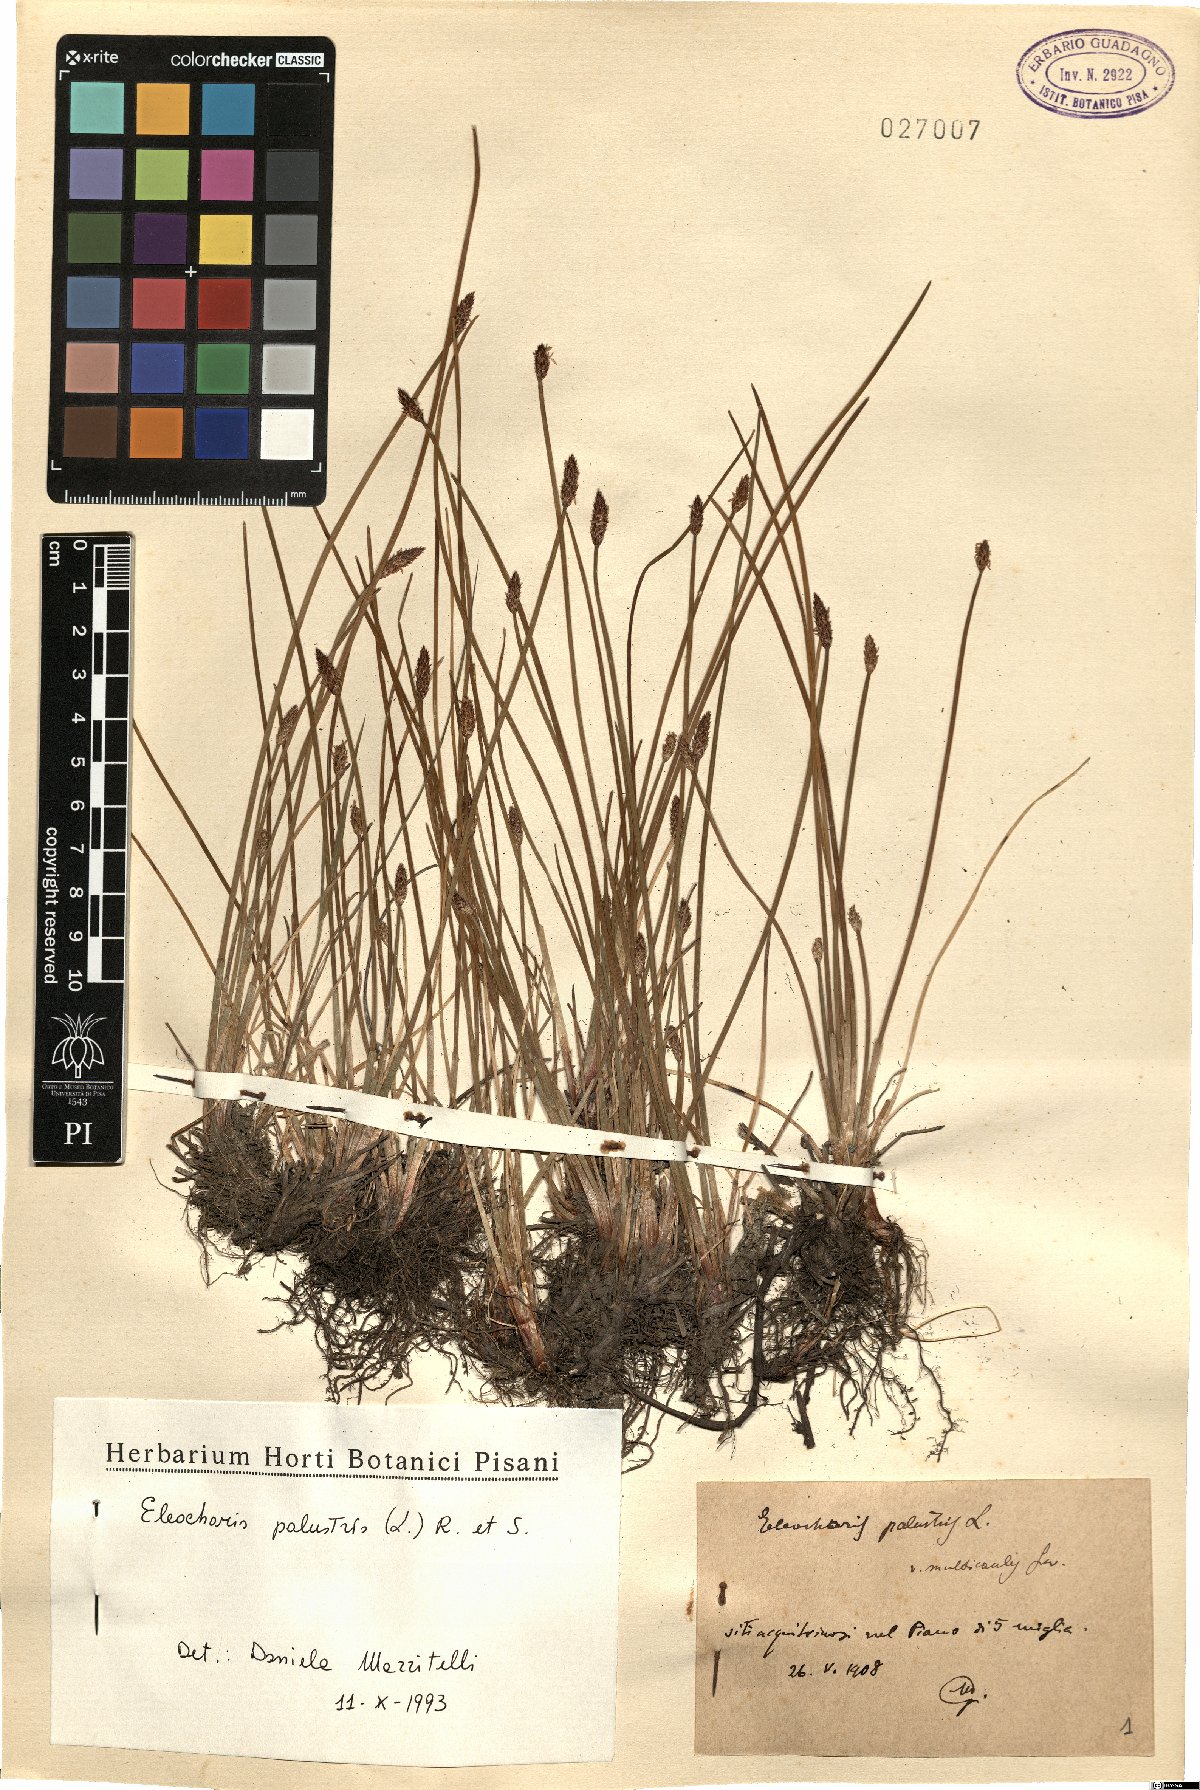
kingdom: Plantae
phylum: Tracheophyta
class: Liliopsida
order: Poales
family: Cyperaceae
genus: Eleocharis
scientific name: Eleocharis palustris
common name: Common spike-rush
